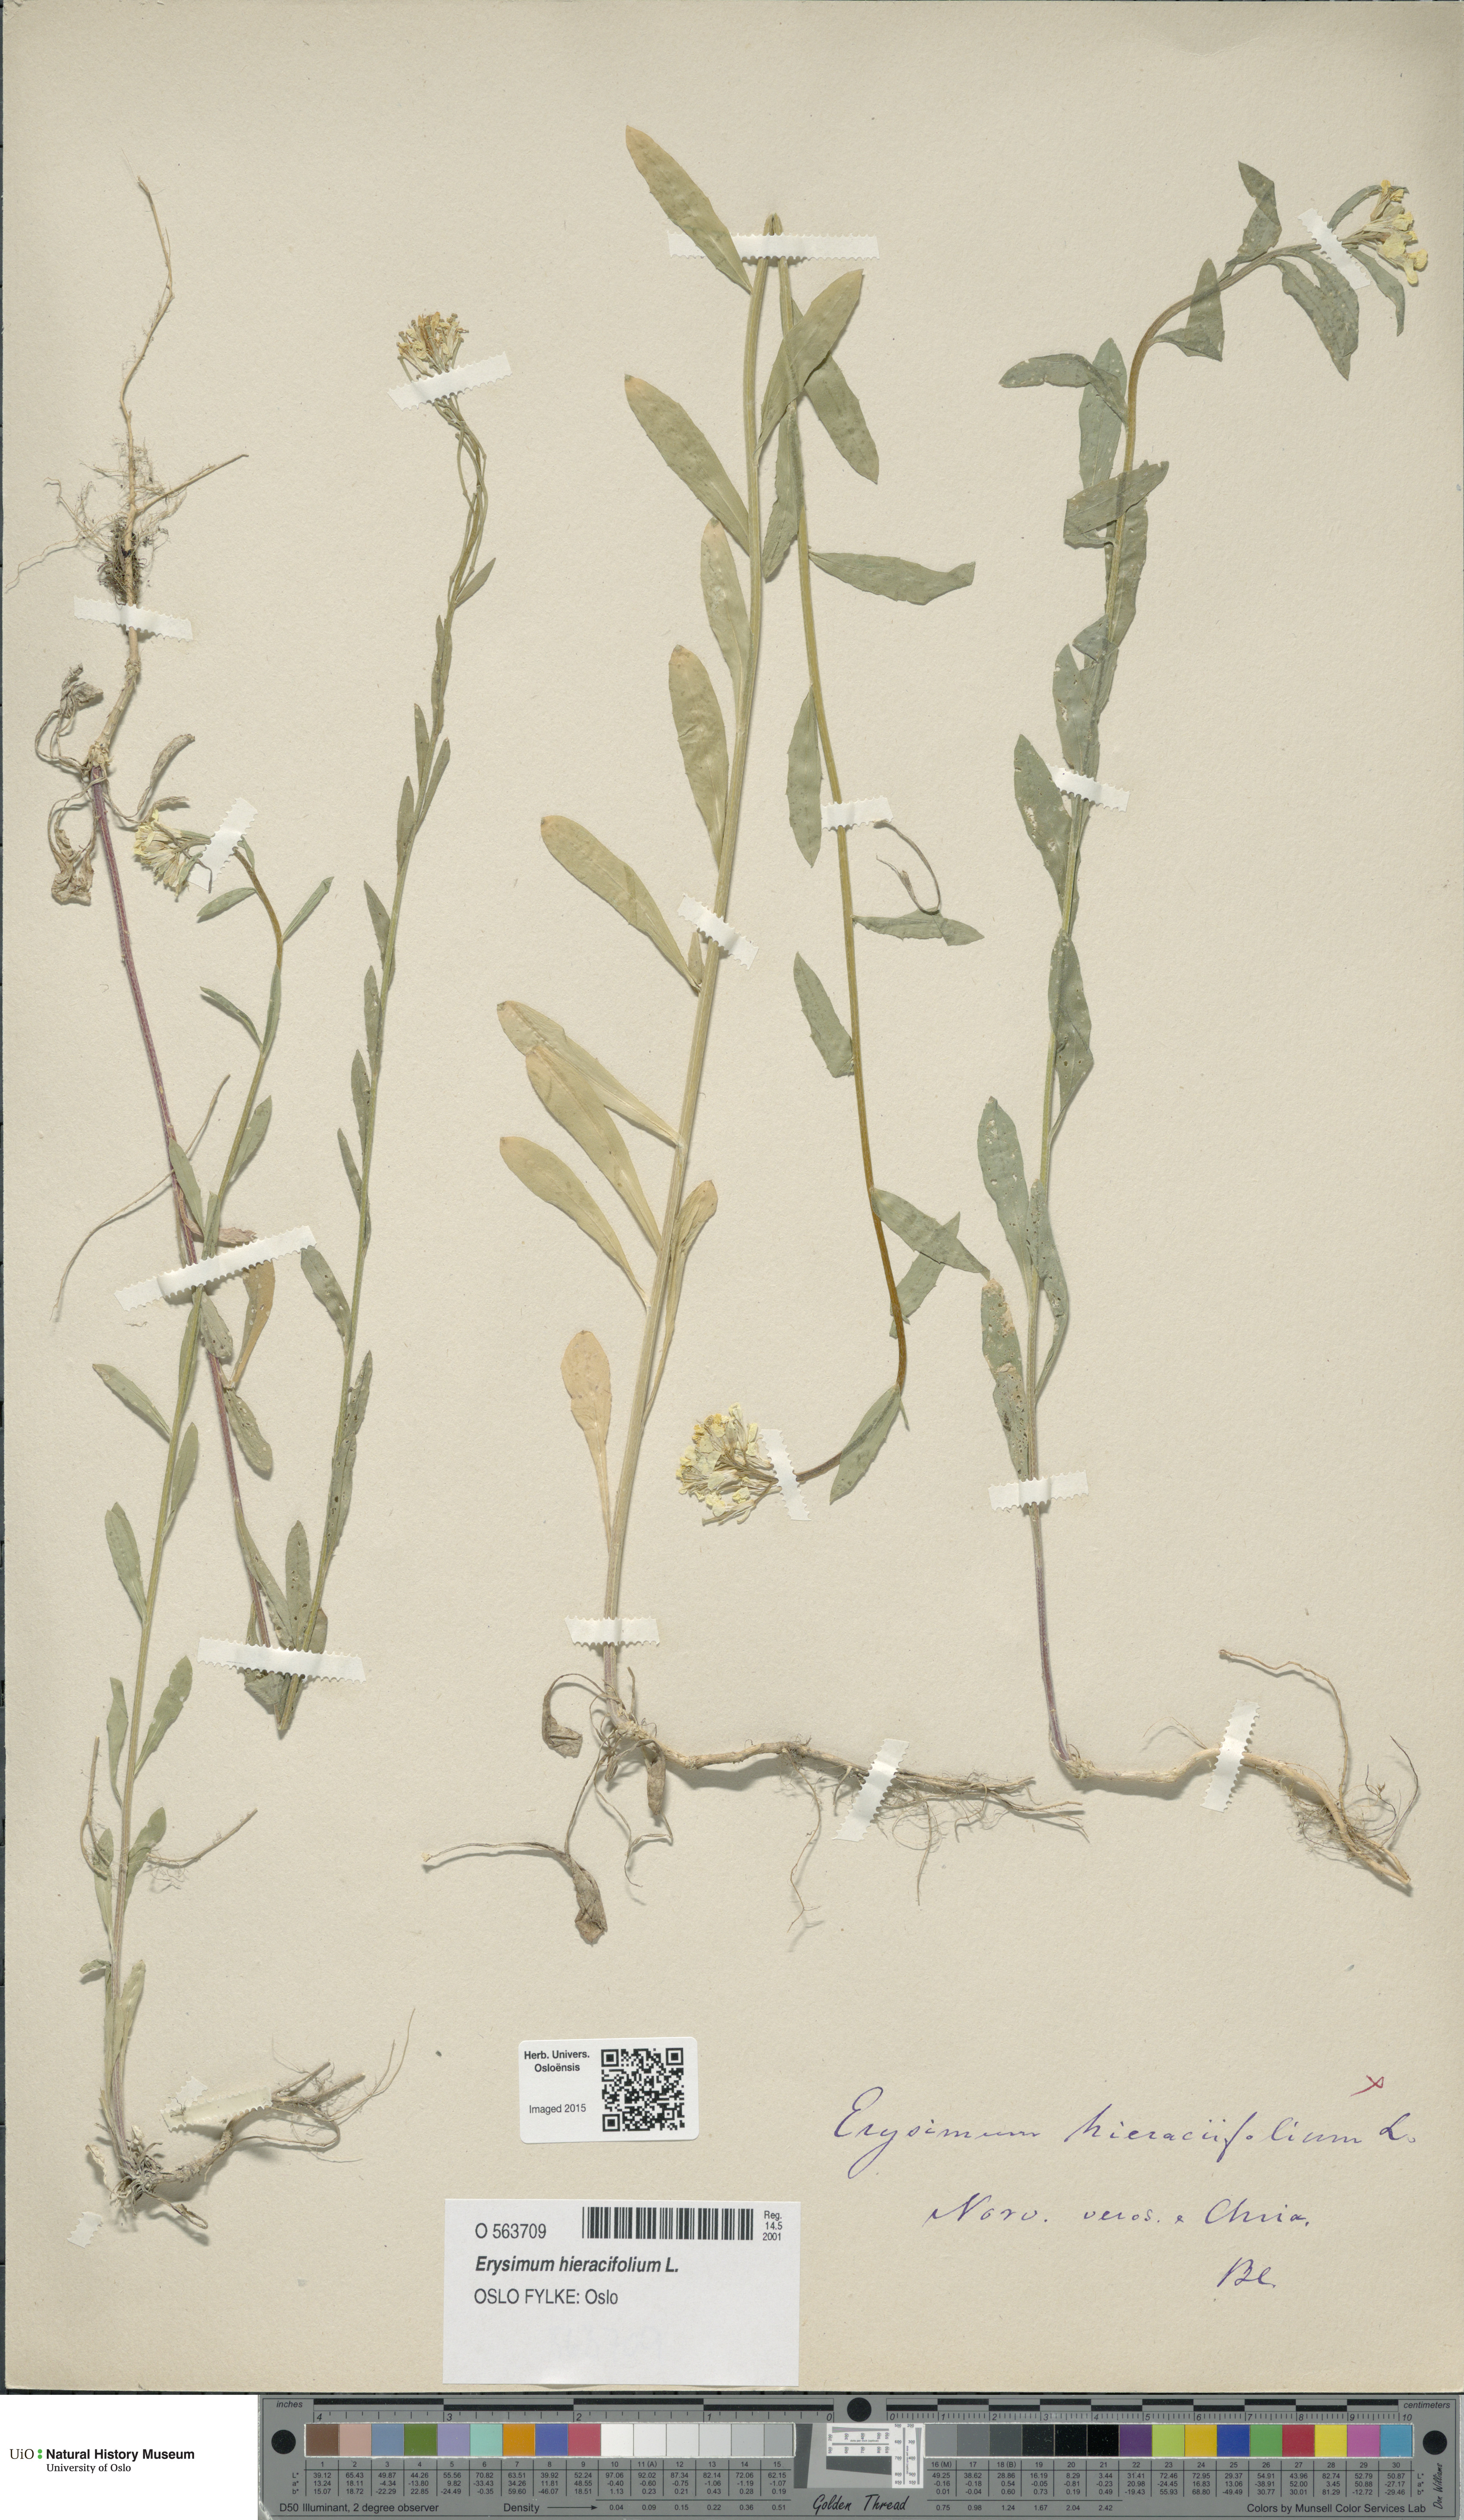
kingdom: Plantae
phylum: Tracheophyta
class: Magnoliopsida
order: Brassicales
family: Brassicaceae
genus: Erysimum
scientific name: Erysimum hieraciifolium
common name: European wallflower
